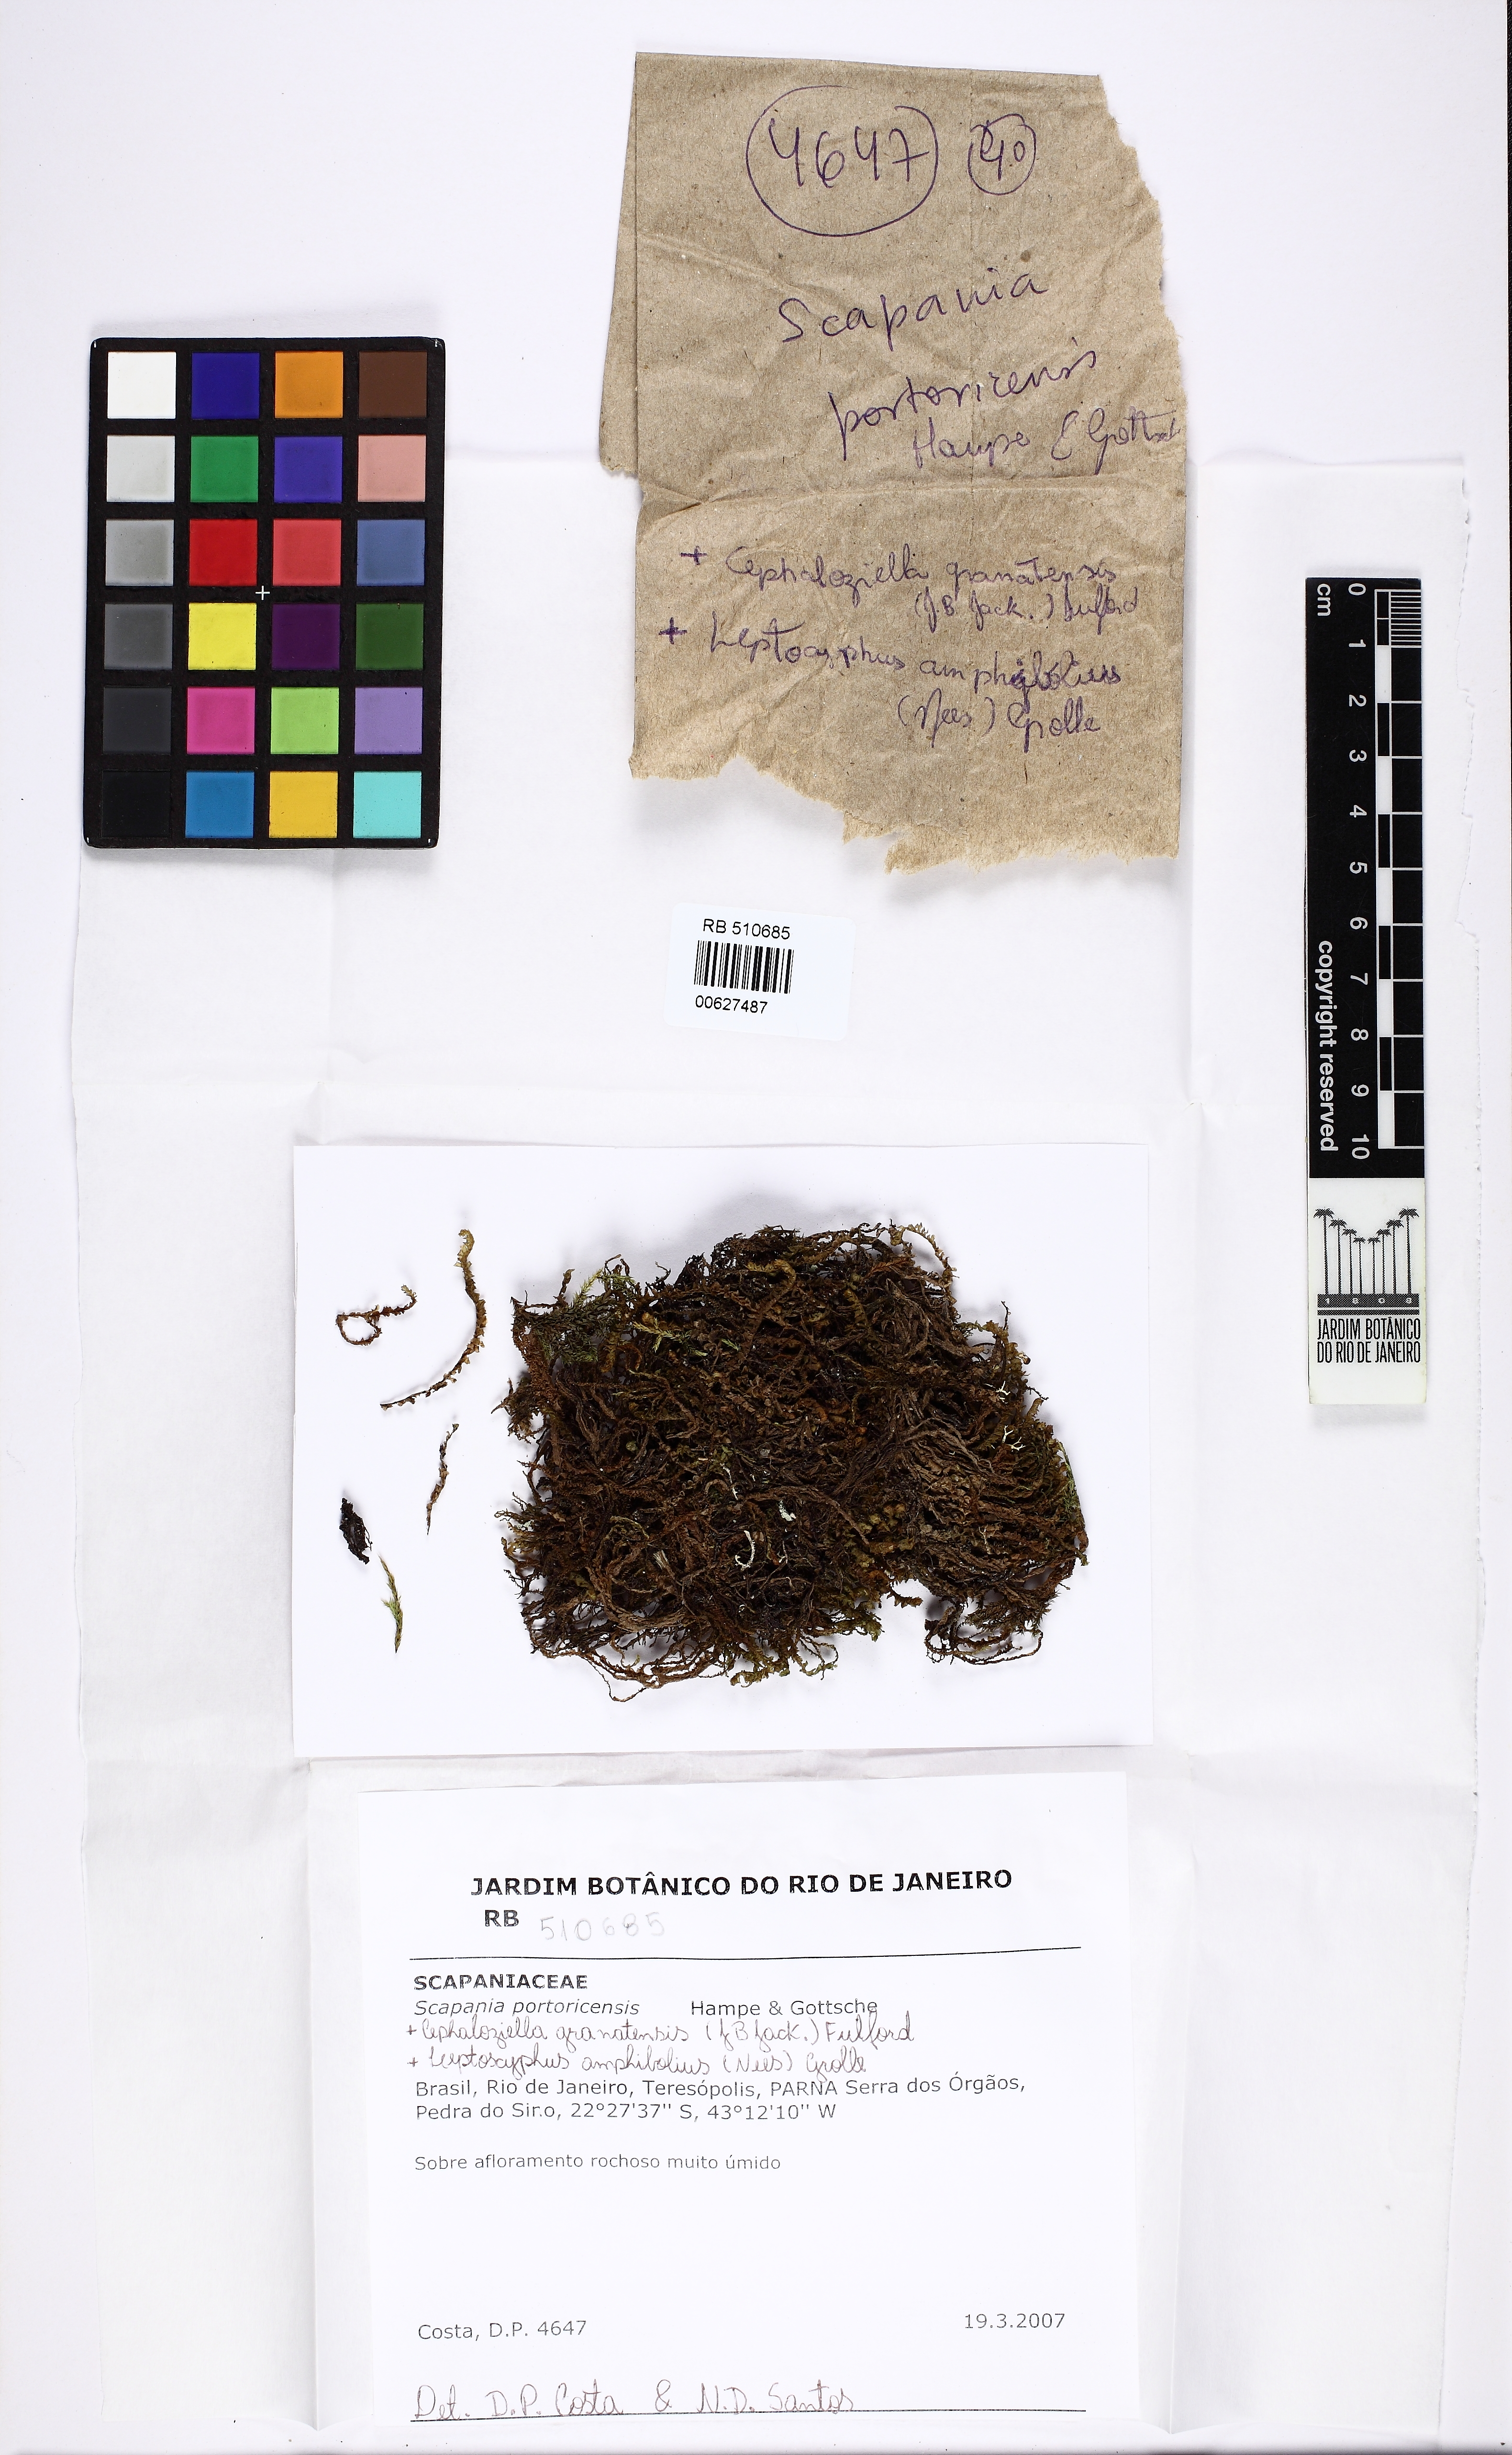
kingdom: Plantae
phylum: Marchantiophyta
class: Jungermanniopsida
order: Jungermanniales
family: Scapaniaceae
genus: Scapania
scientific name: Scapania portoricensis
